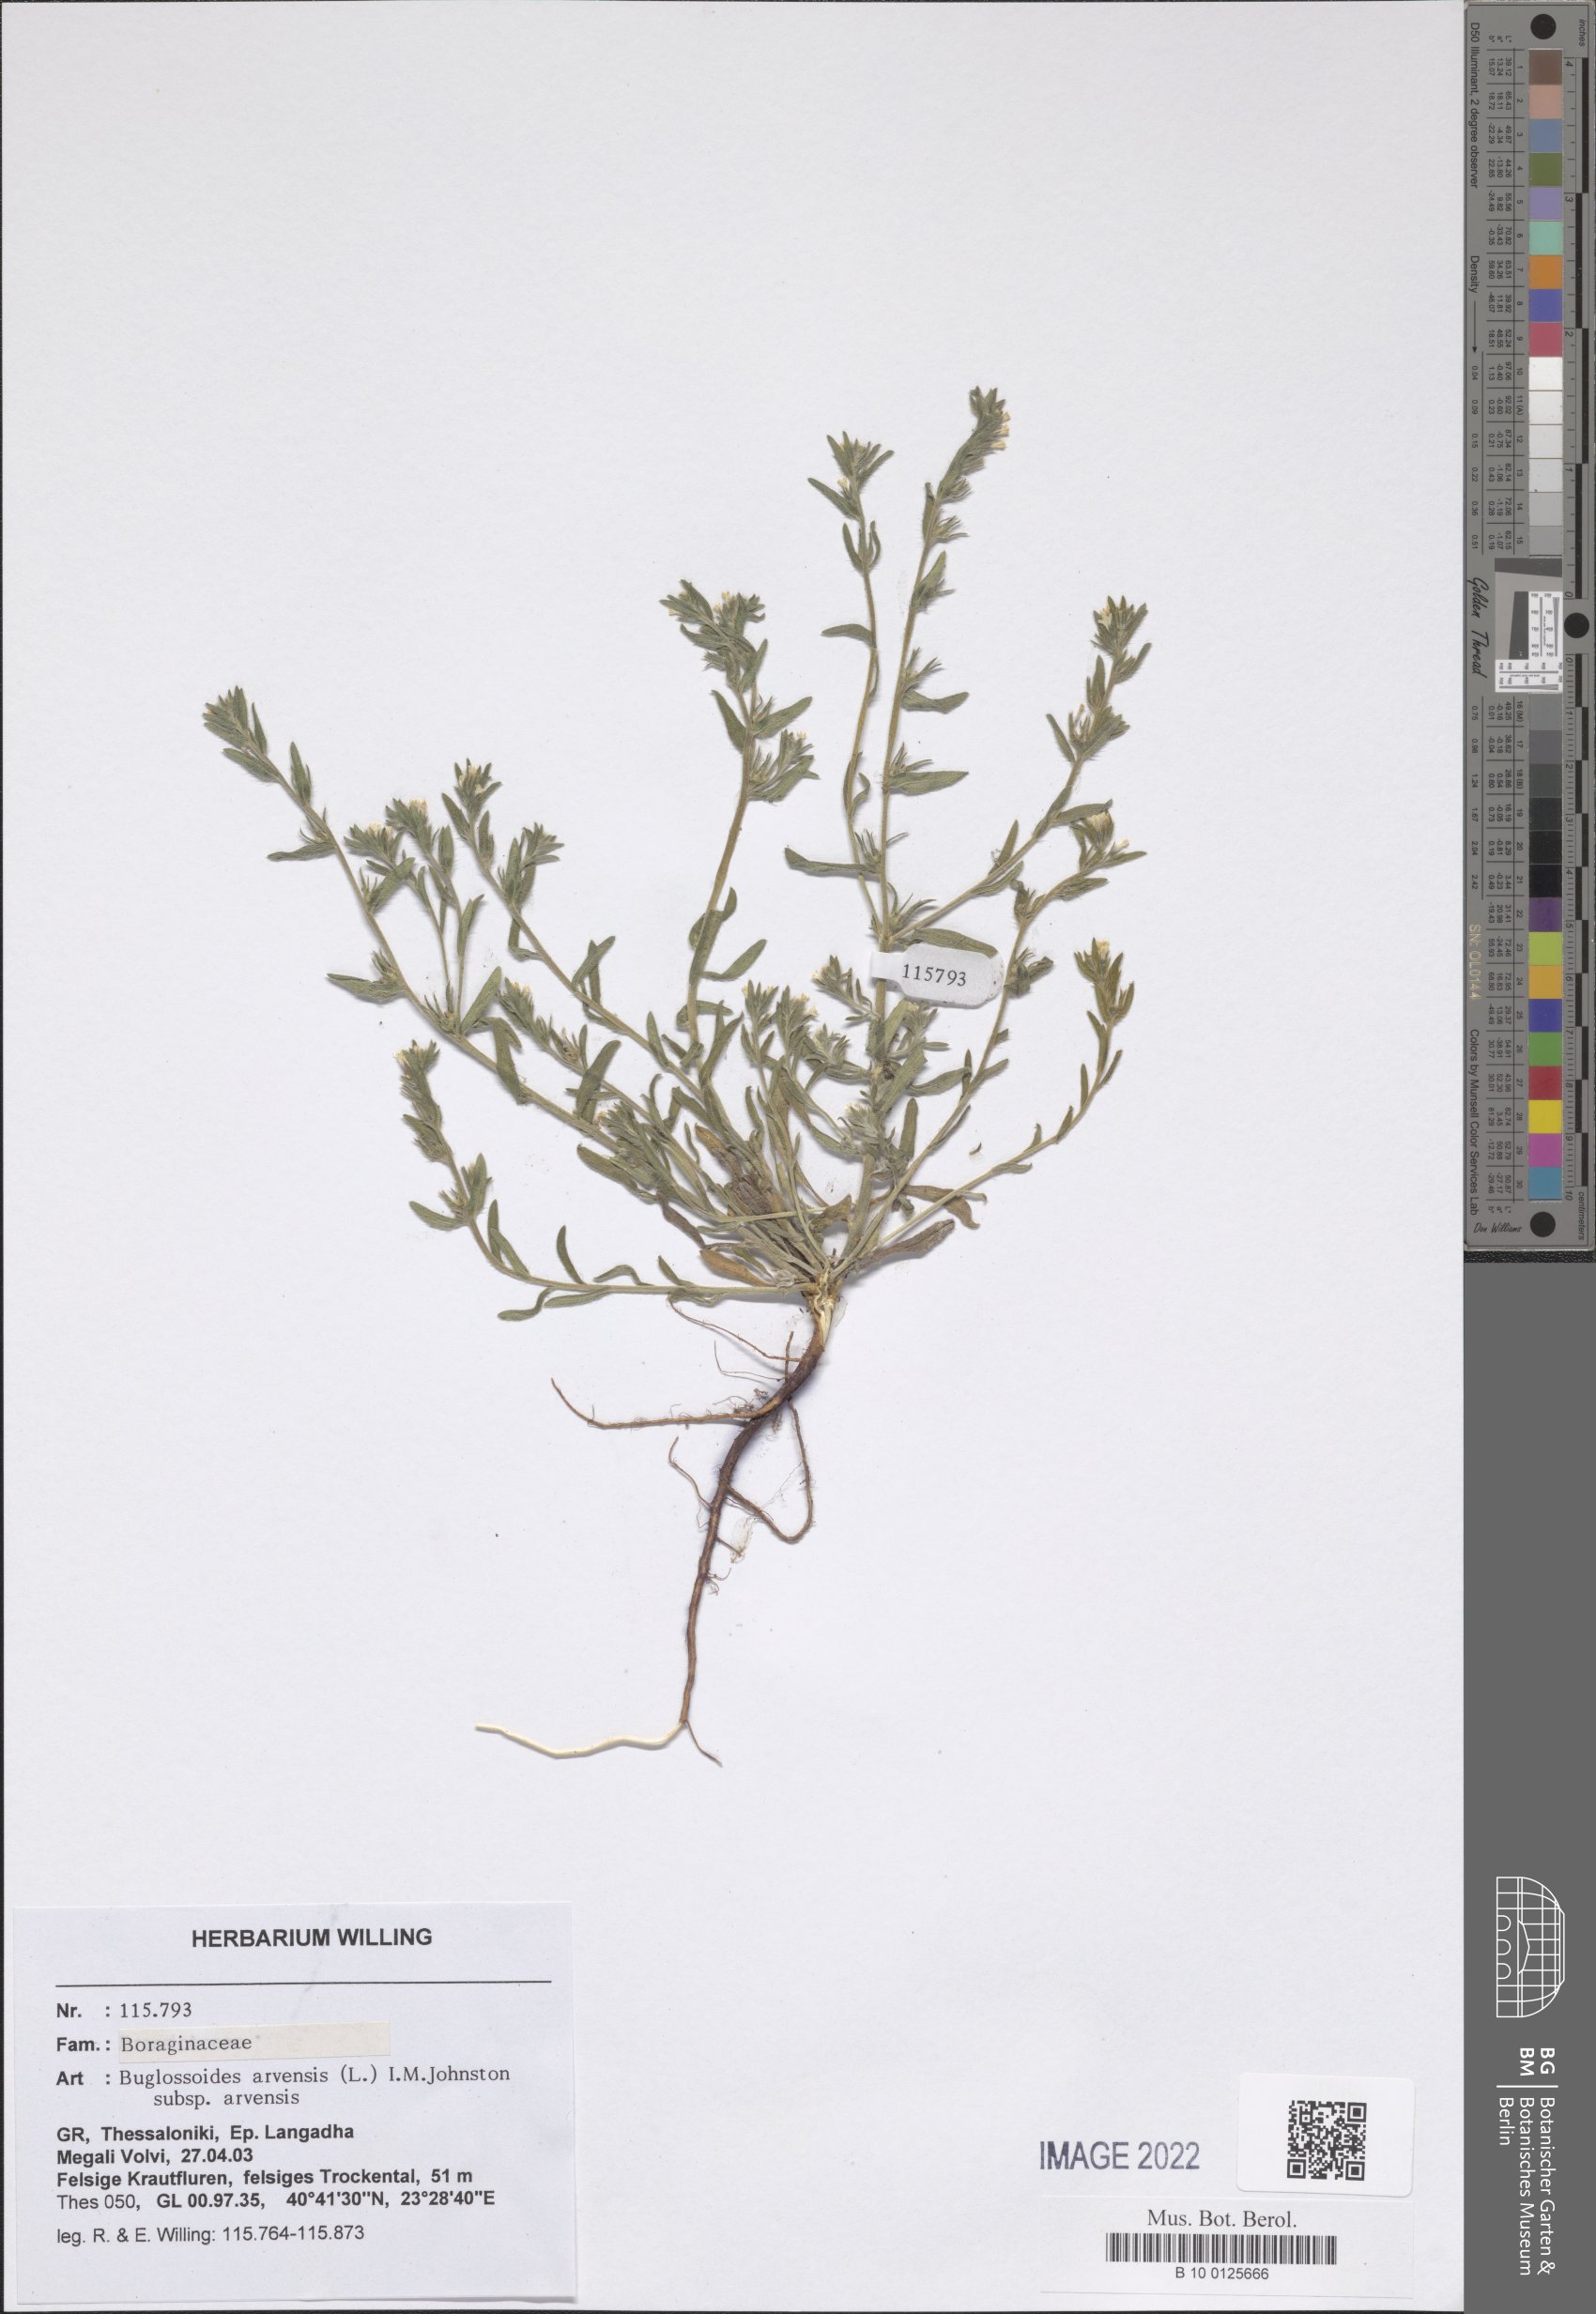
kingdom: Plantae
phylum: Tracheophyta
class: Magnoliopsida
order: Boraginales
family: Boraginaceae
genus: Buglossoides
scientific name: Buglossoides arvensis
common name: Corn gromwell
